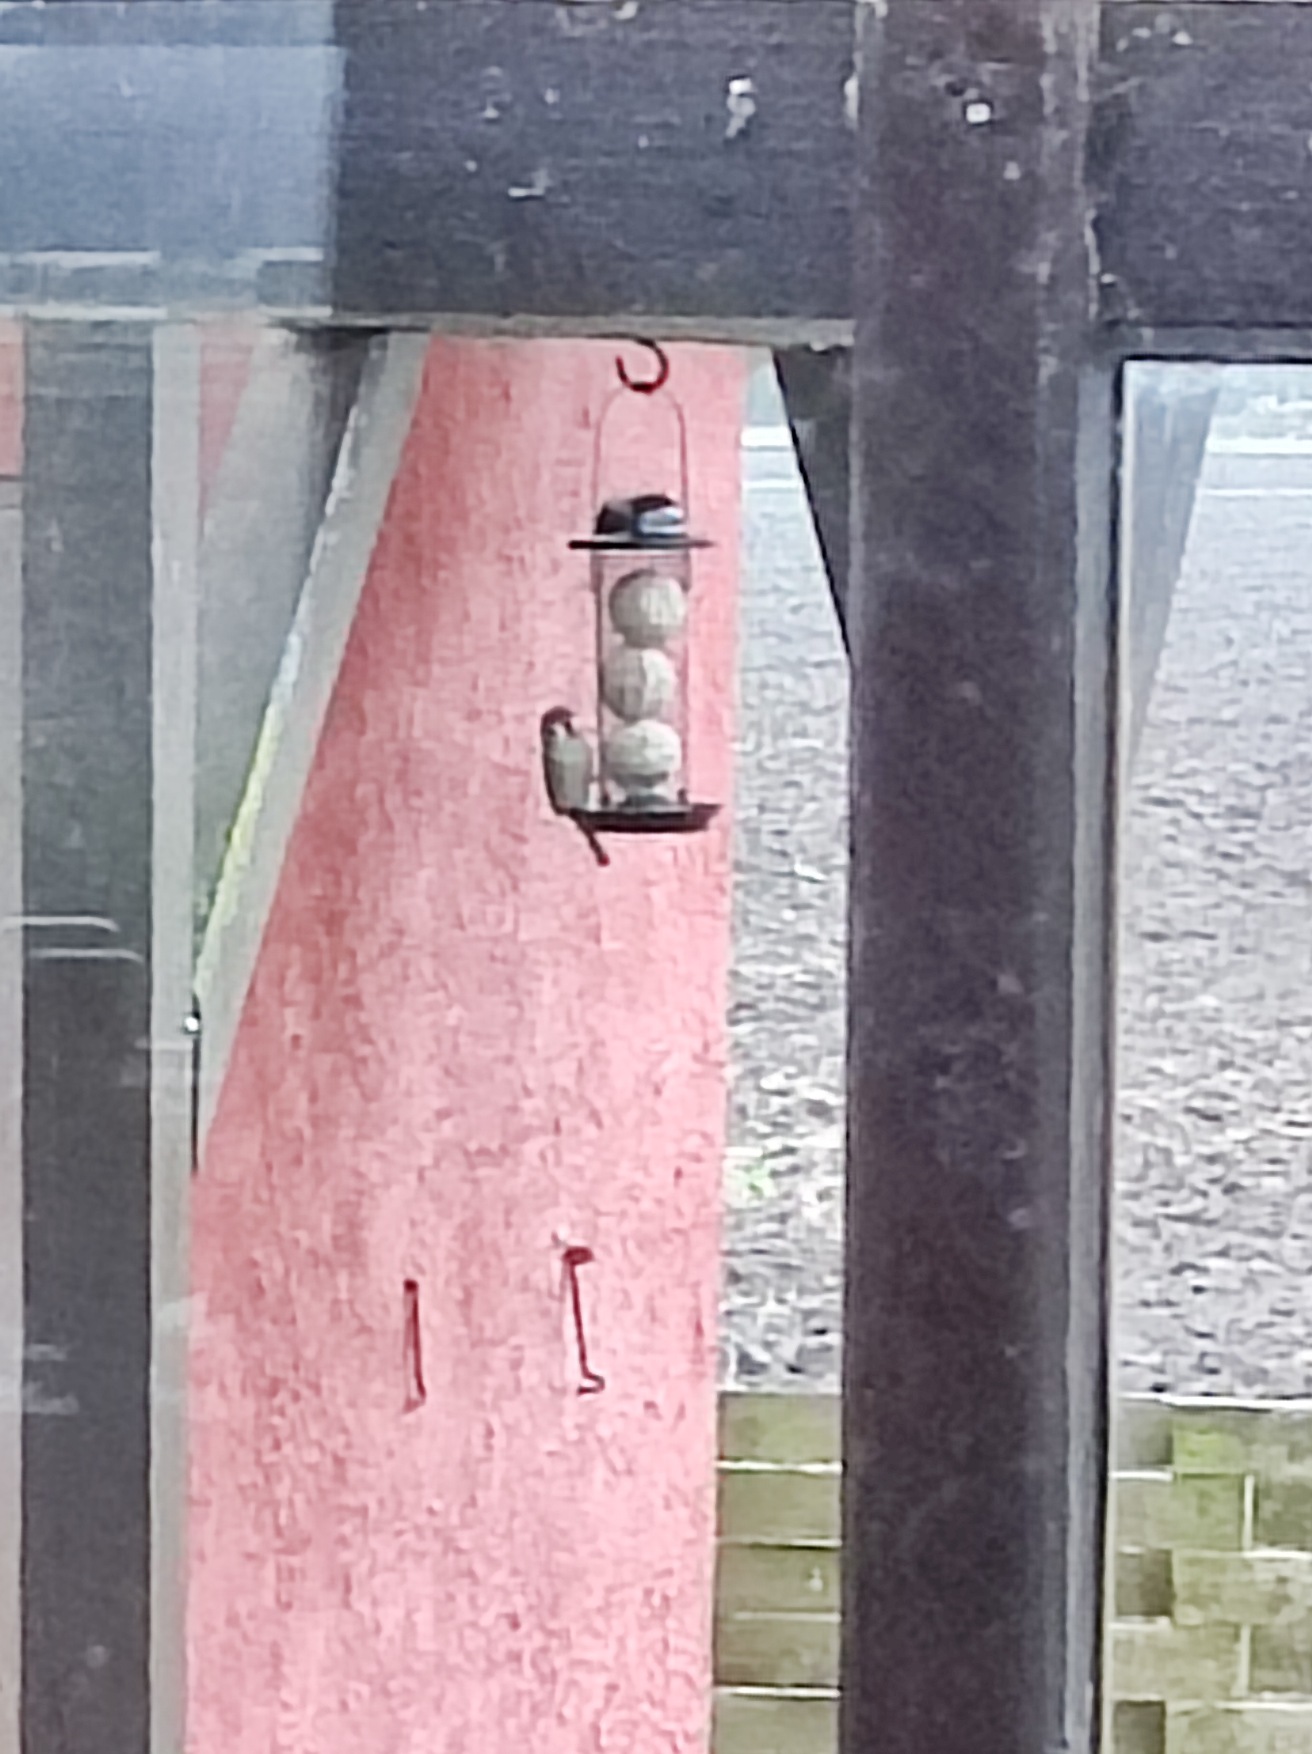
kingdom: Animalia
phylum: Chordata
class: Aves
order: Passeriformes
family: Passeridae
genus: Passer
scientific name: Passer montanus
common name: Skovspurv
